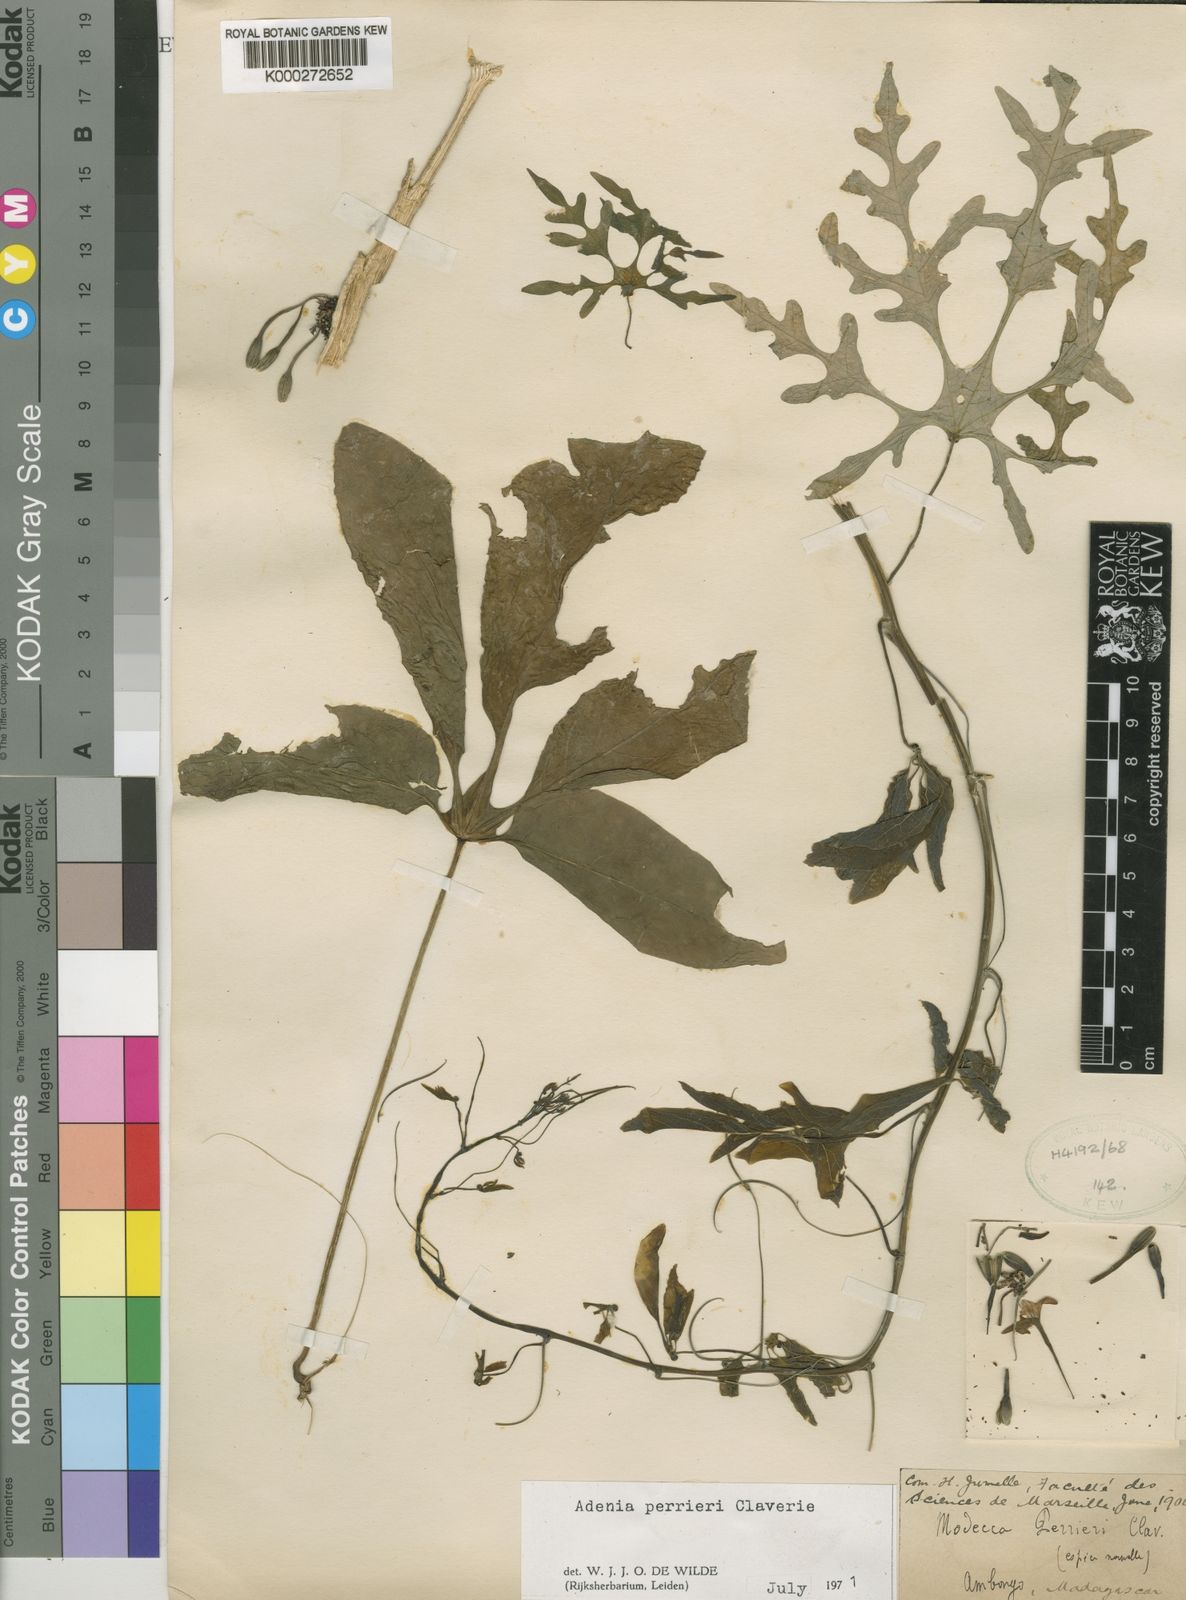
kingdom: Plantae
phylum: Tracheophyta
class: Magnoliopsida
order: Malpighiales
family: Passifloraceae
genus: Adenia
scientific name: Adenia perrieri
